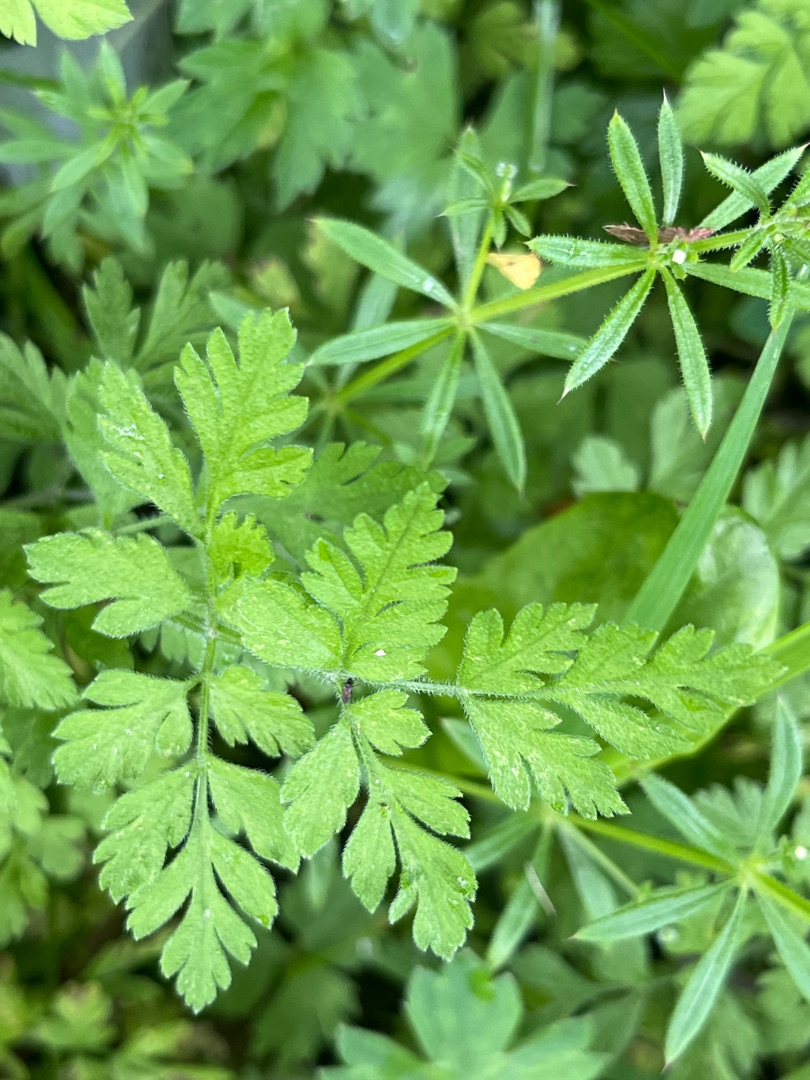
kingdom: Plantae
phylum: Tracheophyta
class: Magnoliopsida
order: Apiales
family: Apiaceae
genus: Chaerophyllum
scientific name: Chaerophyllum temulum
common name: Almindelig hulsvøb
